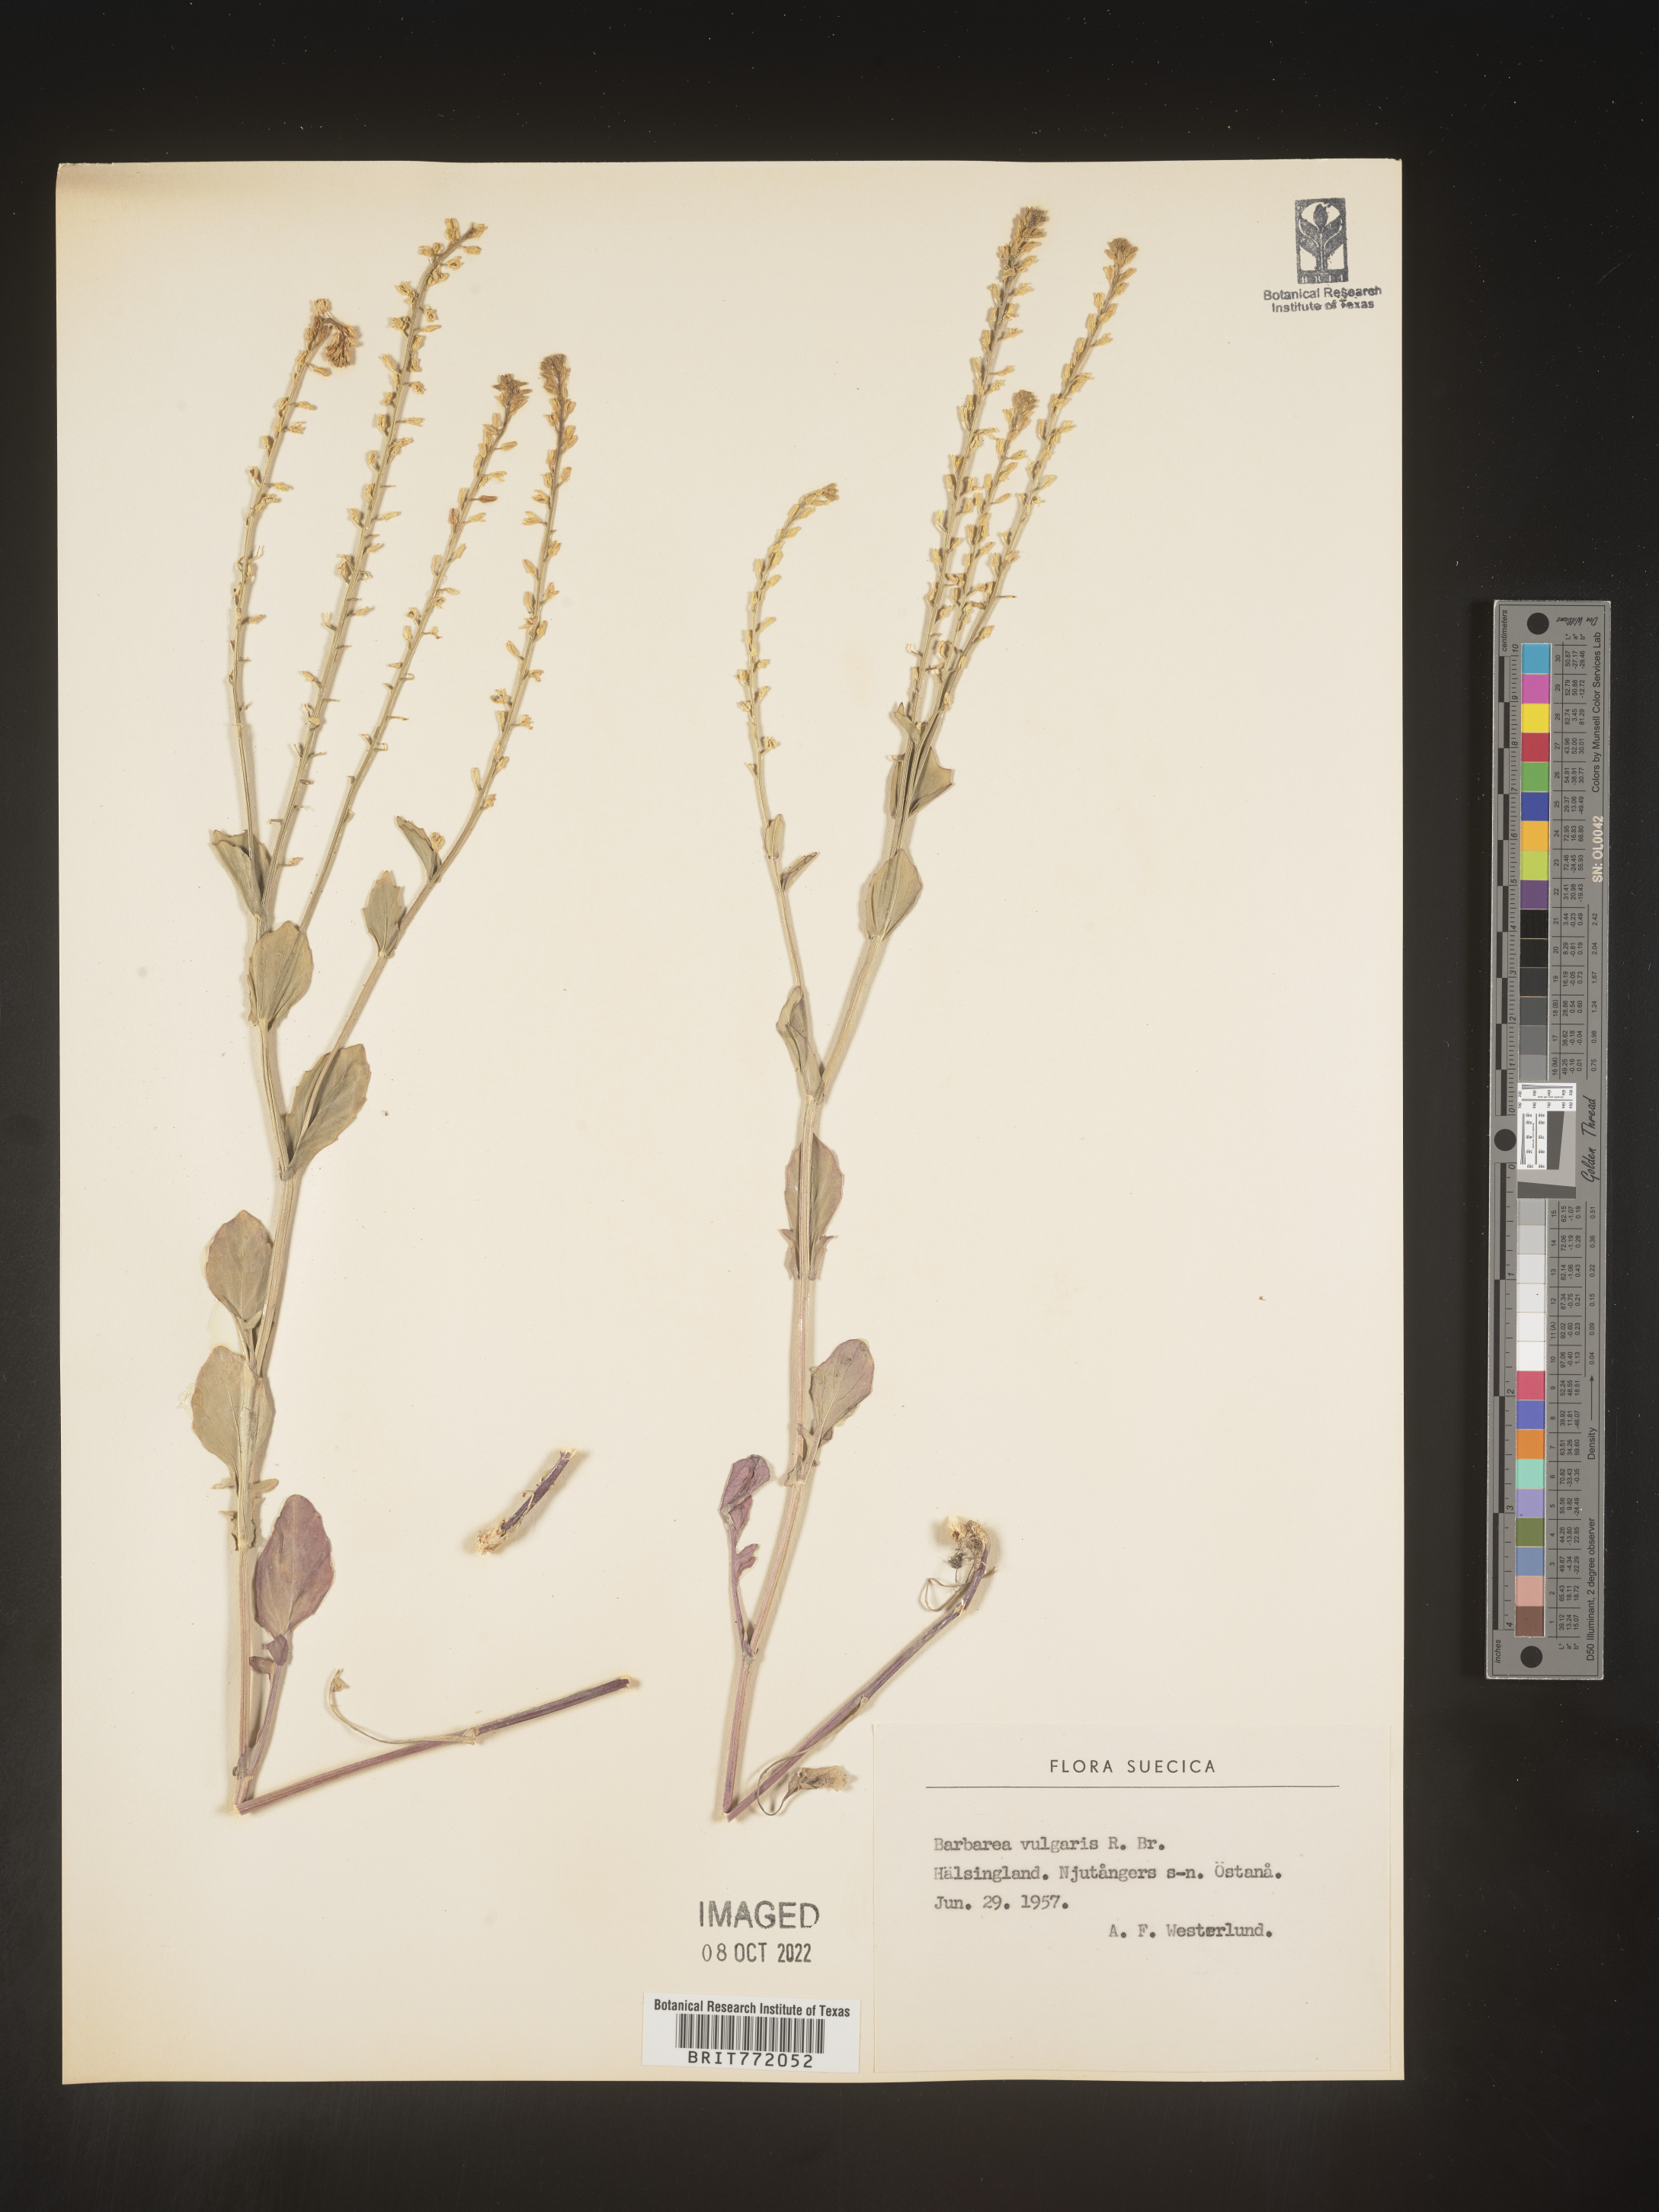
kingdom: Plantae
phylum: Tracheophyta
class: Magnoliopsida
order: Brassicales
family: Brassicaceae
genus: Barbarea
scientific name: Barbarea
